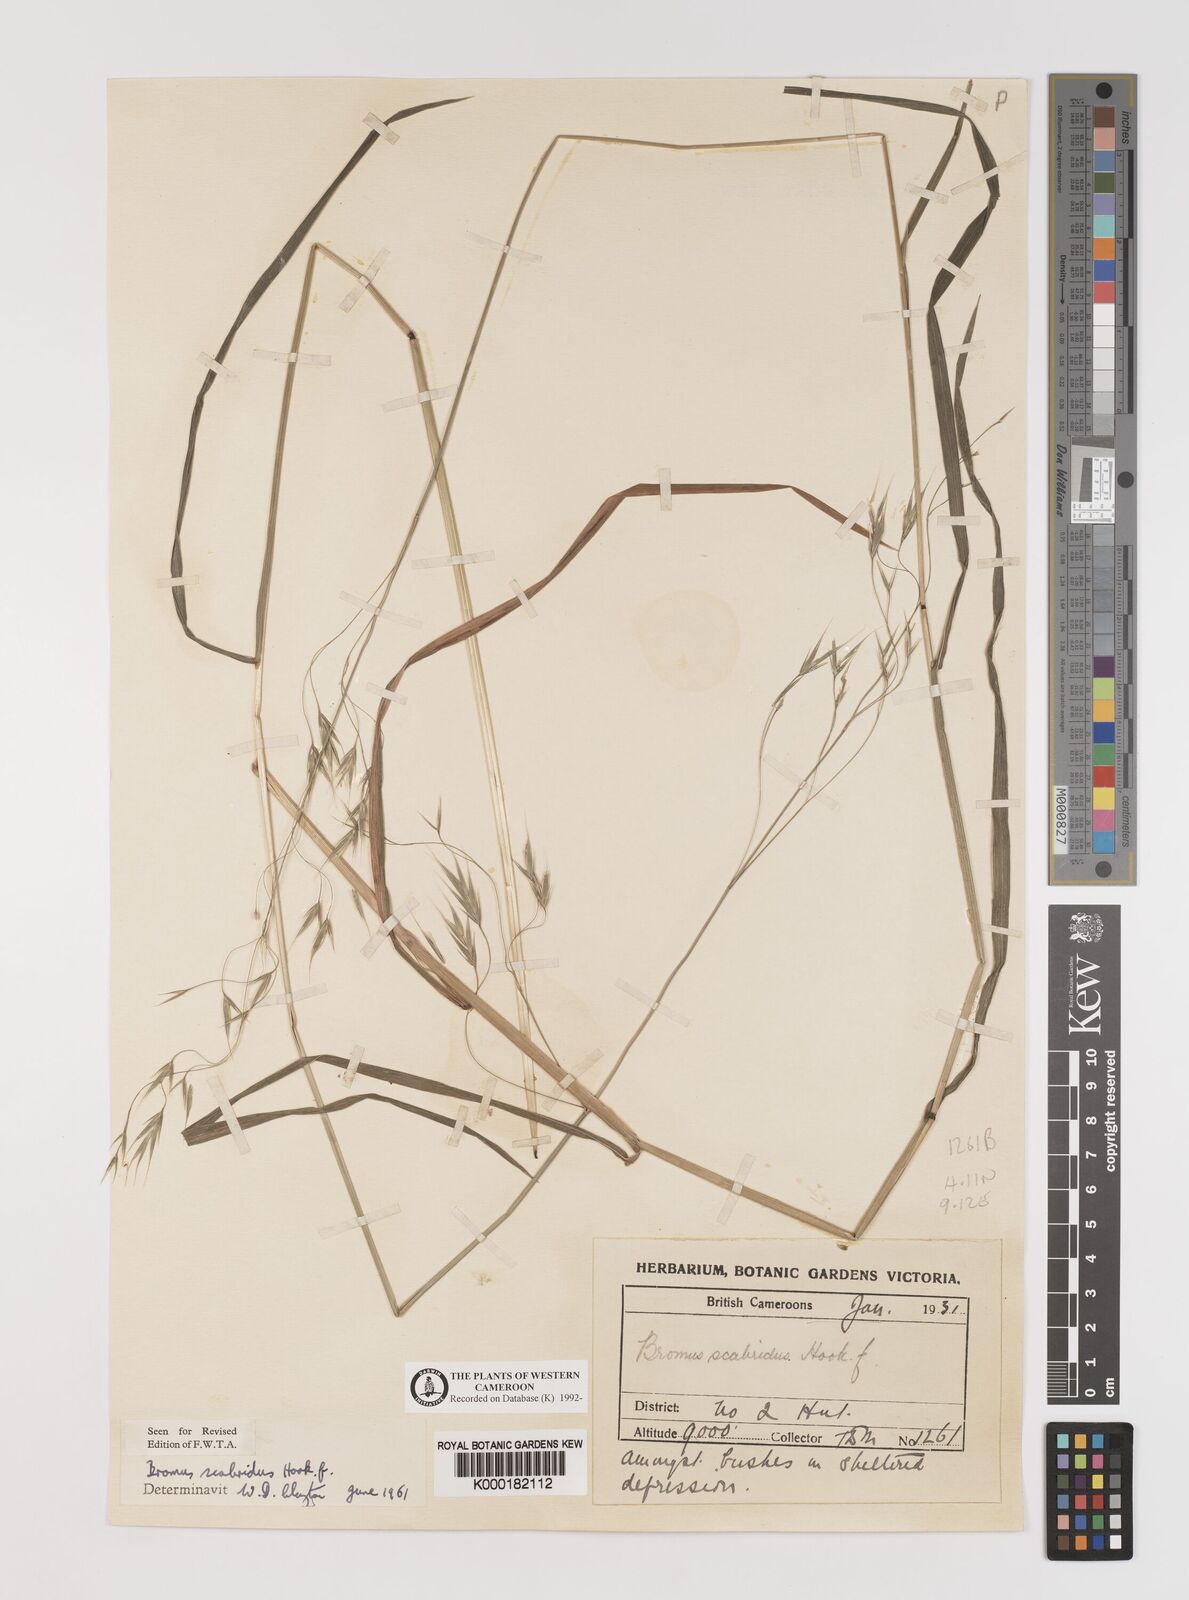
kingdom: Plantae
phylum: Tracheophyta
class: Liliopsida
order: Poales
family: Poaceae
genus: Bromus
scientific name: Bromus leptoclados
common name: Mountain bromegrass
